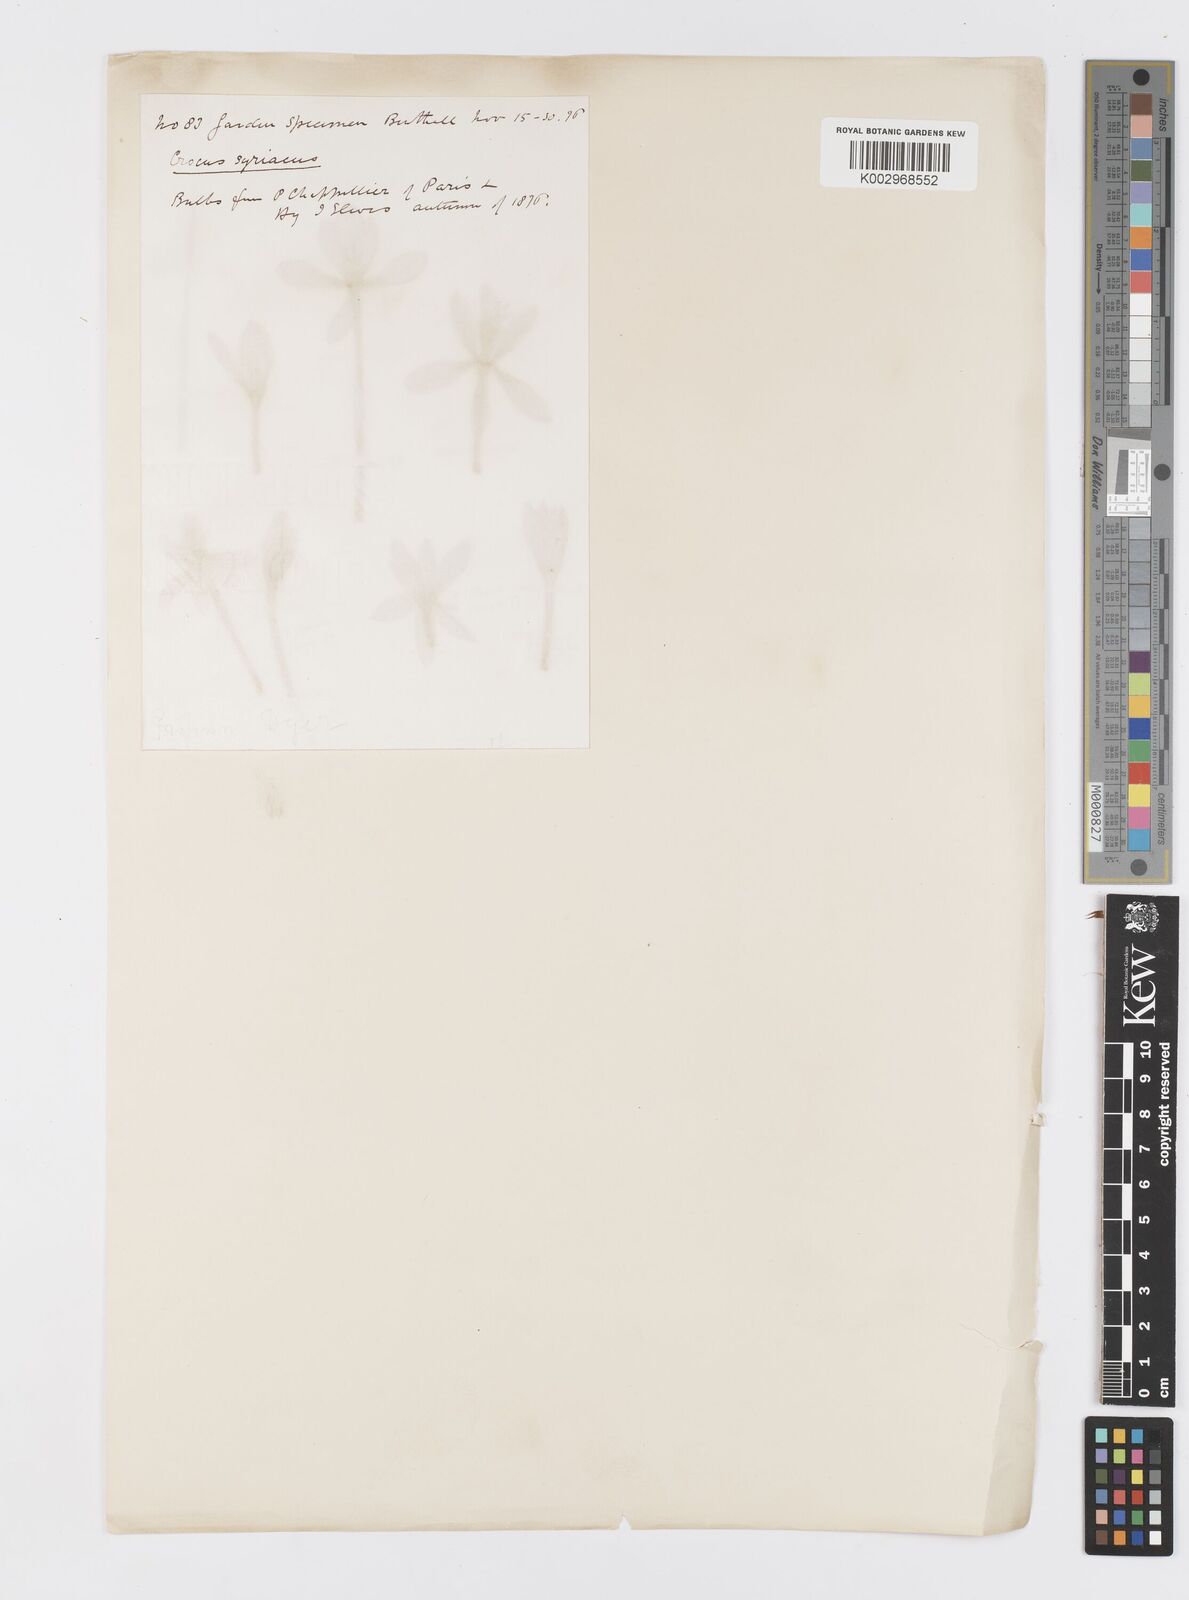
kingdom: Plantae
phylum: Tracheophyta
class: Liliopsida
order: Asparagales
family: Iridaceae
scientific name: Iridaceae
